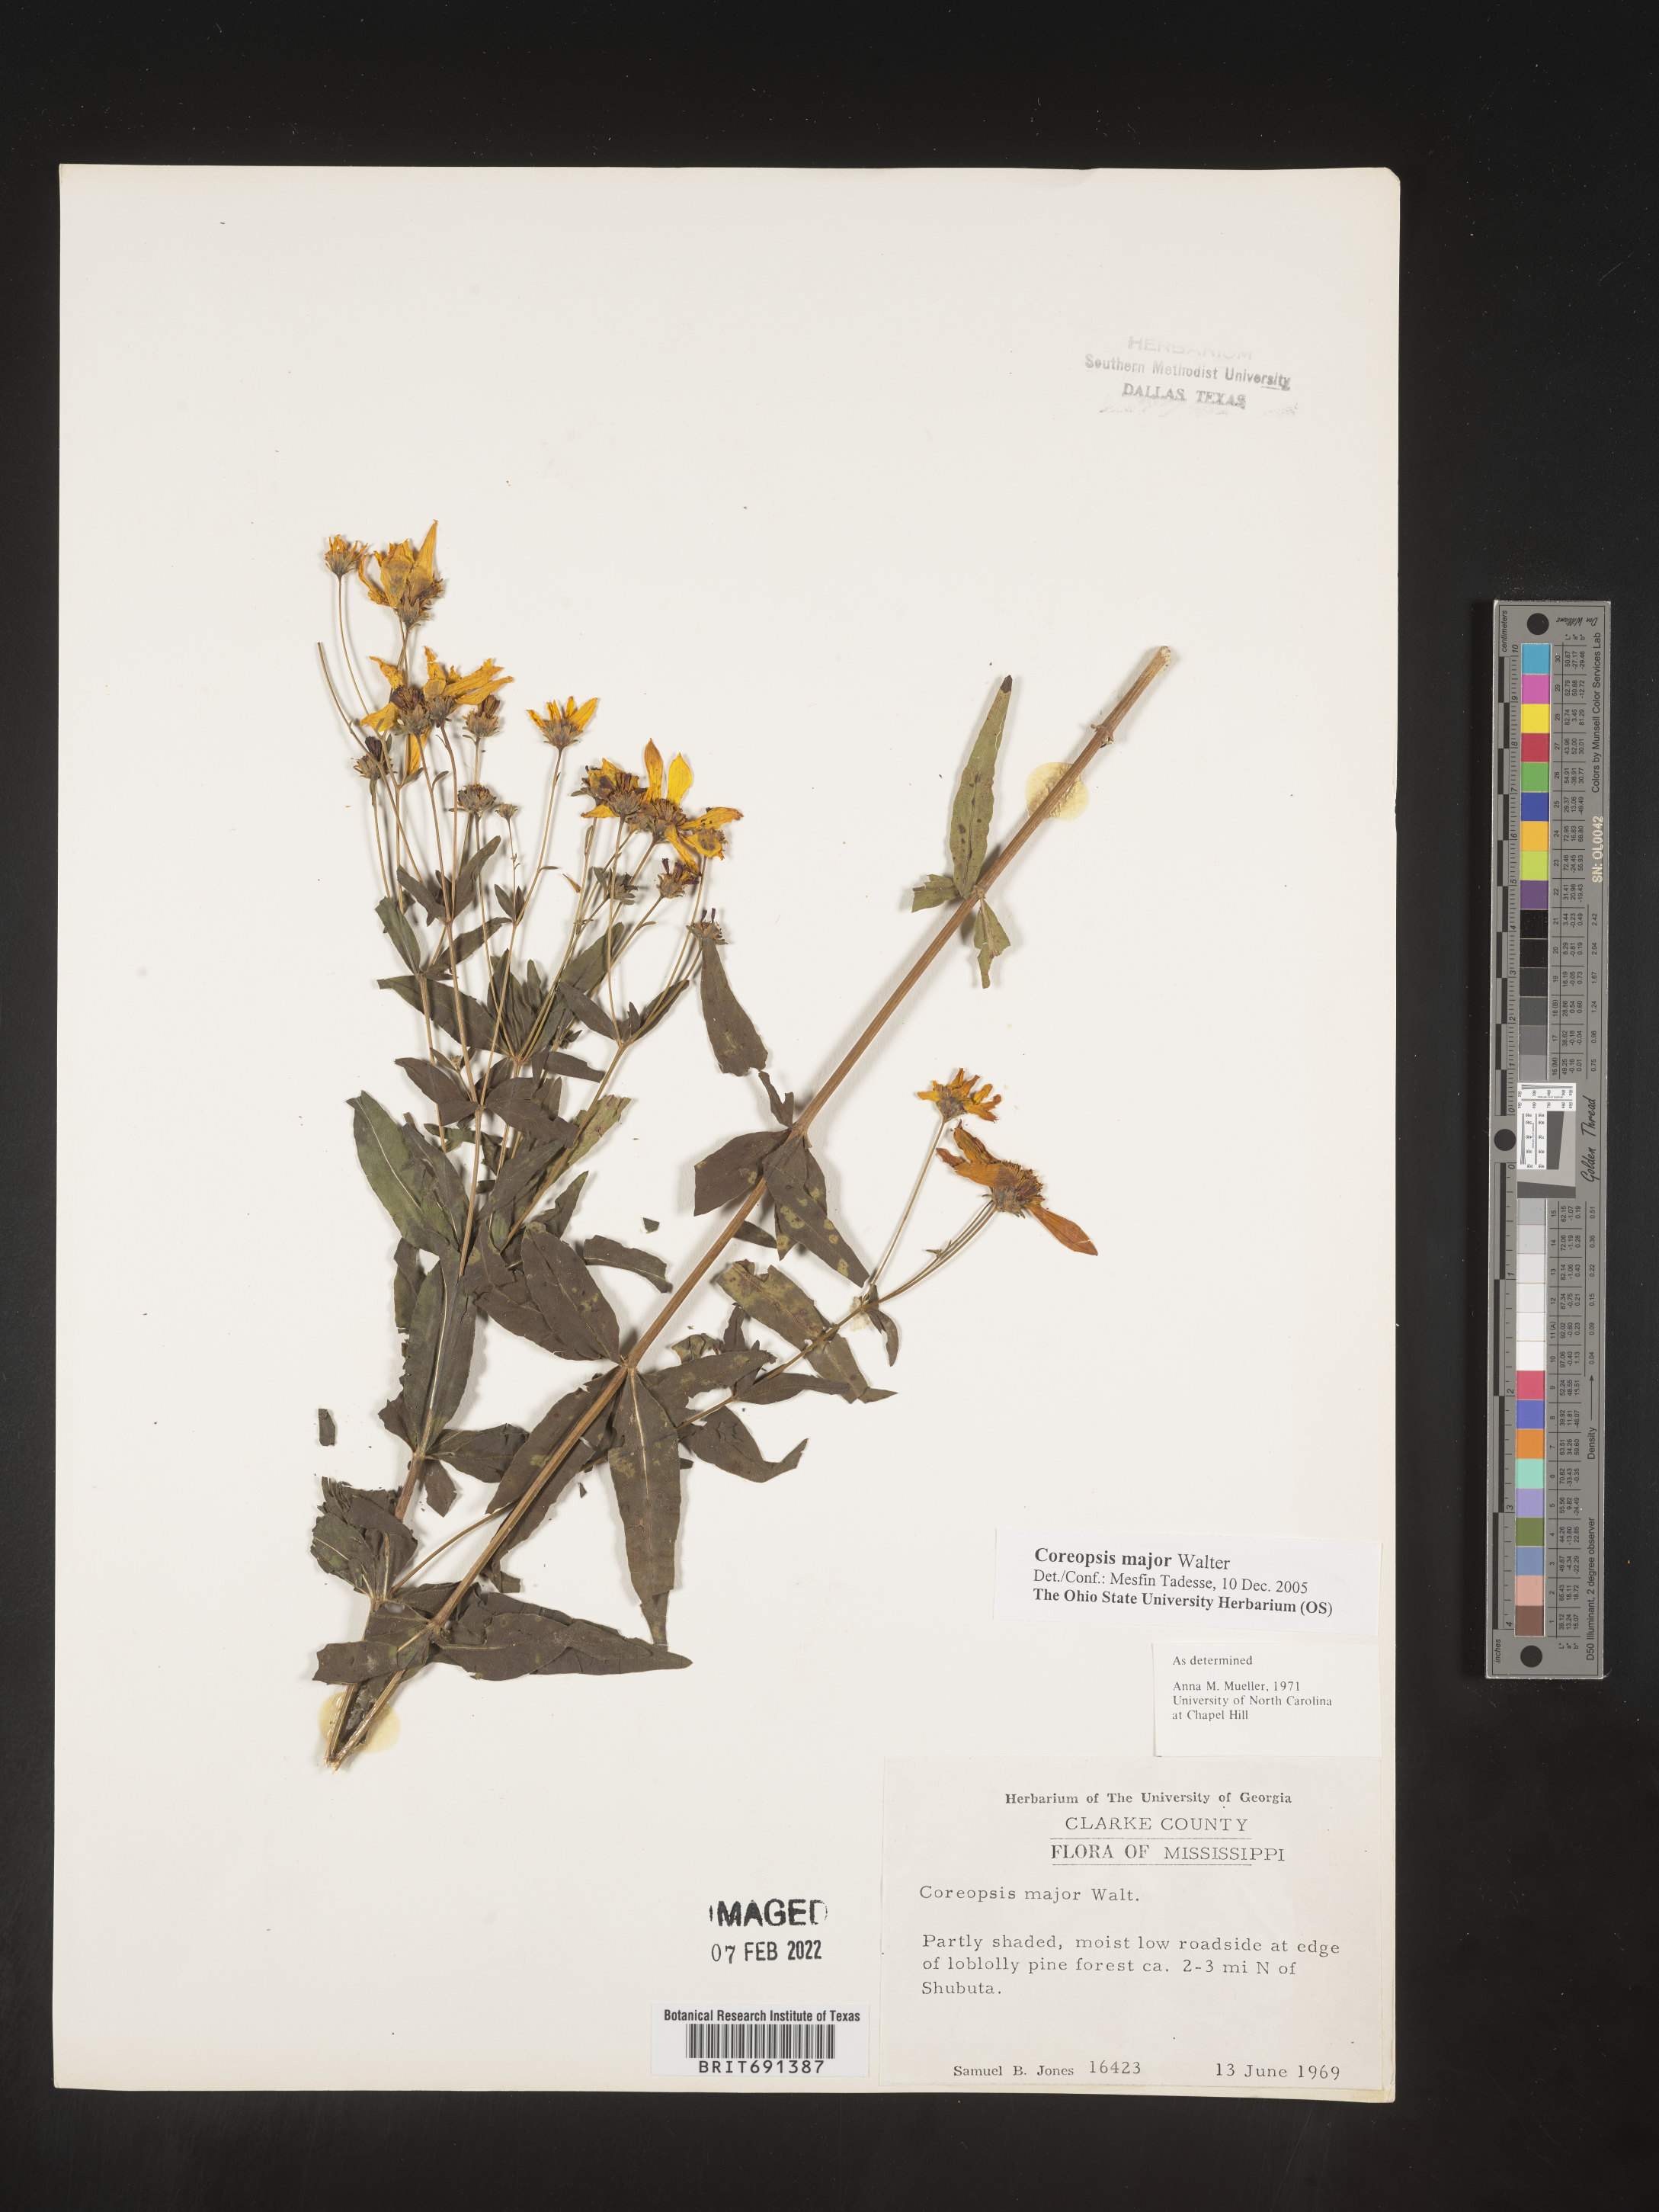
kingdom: Plantae
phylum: Tracheophyta
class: Magnoliopsida
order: Asterales
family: Asteraceae
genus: Coreopsis
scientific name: Coreopsis major
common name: Forest tickseed
